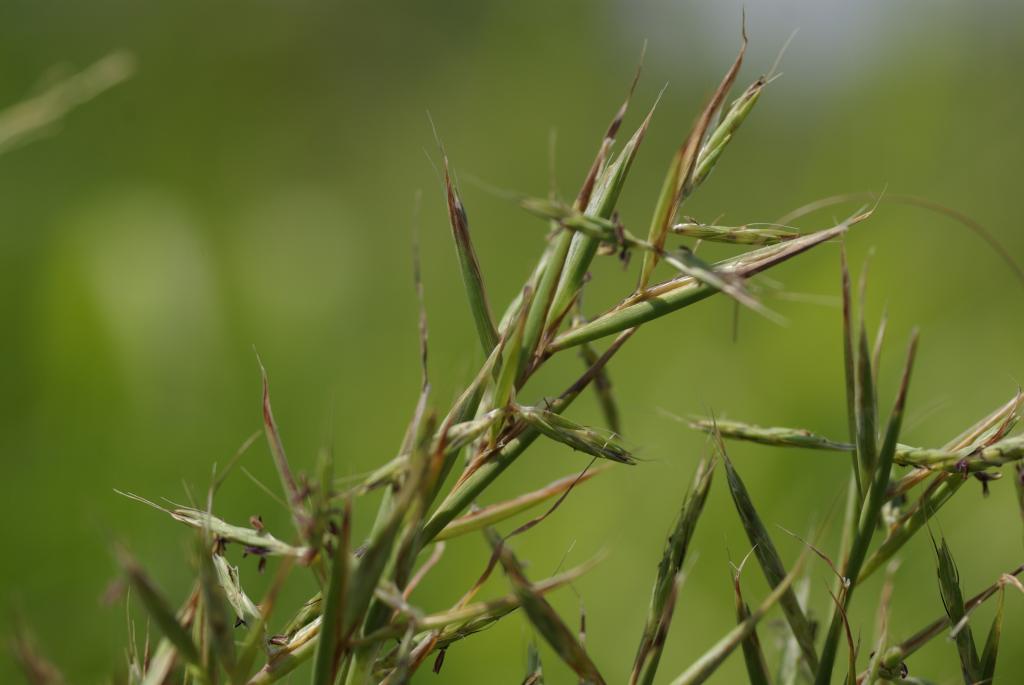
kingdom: Plantae
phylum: Tracheophyta
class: Liliopsida
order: Poales
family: Poaceae
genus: Cymbopogon
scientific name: Cymbopogon tortilis
